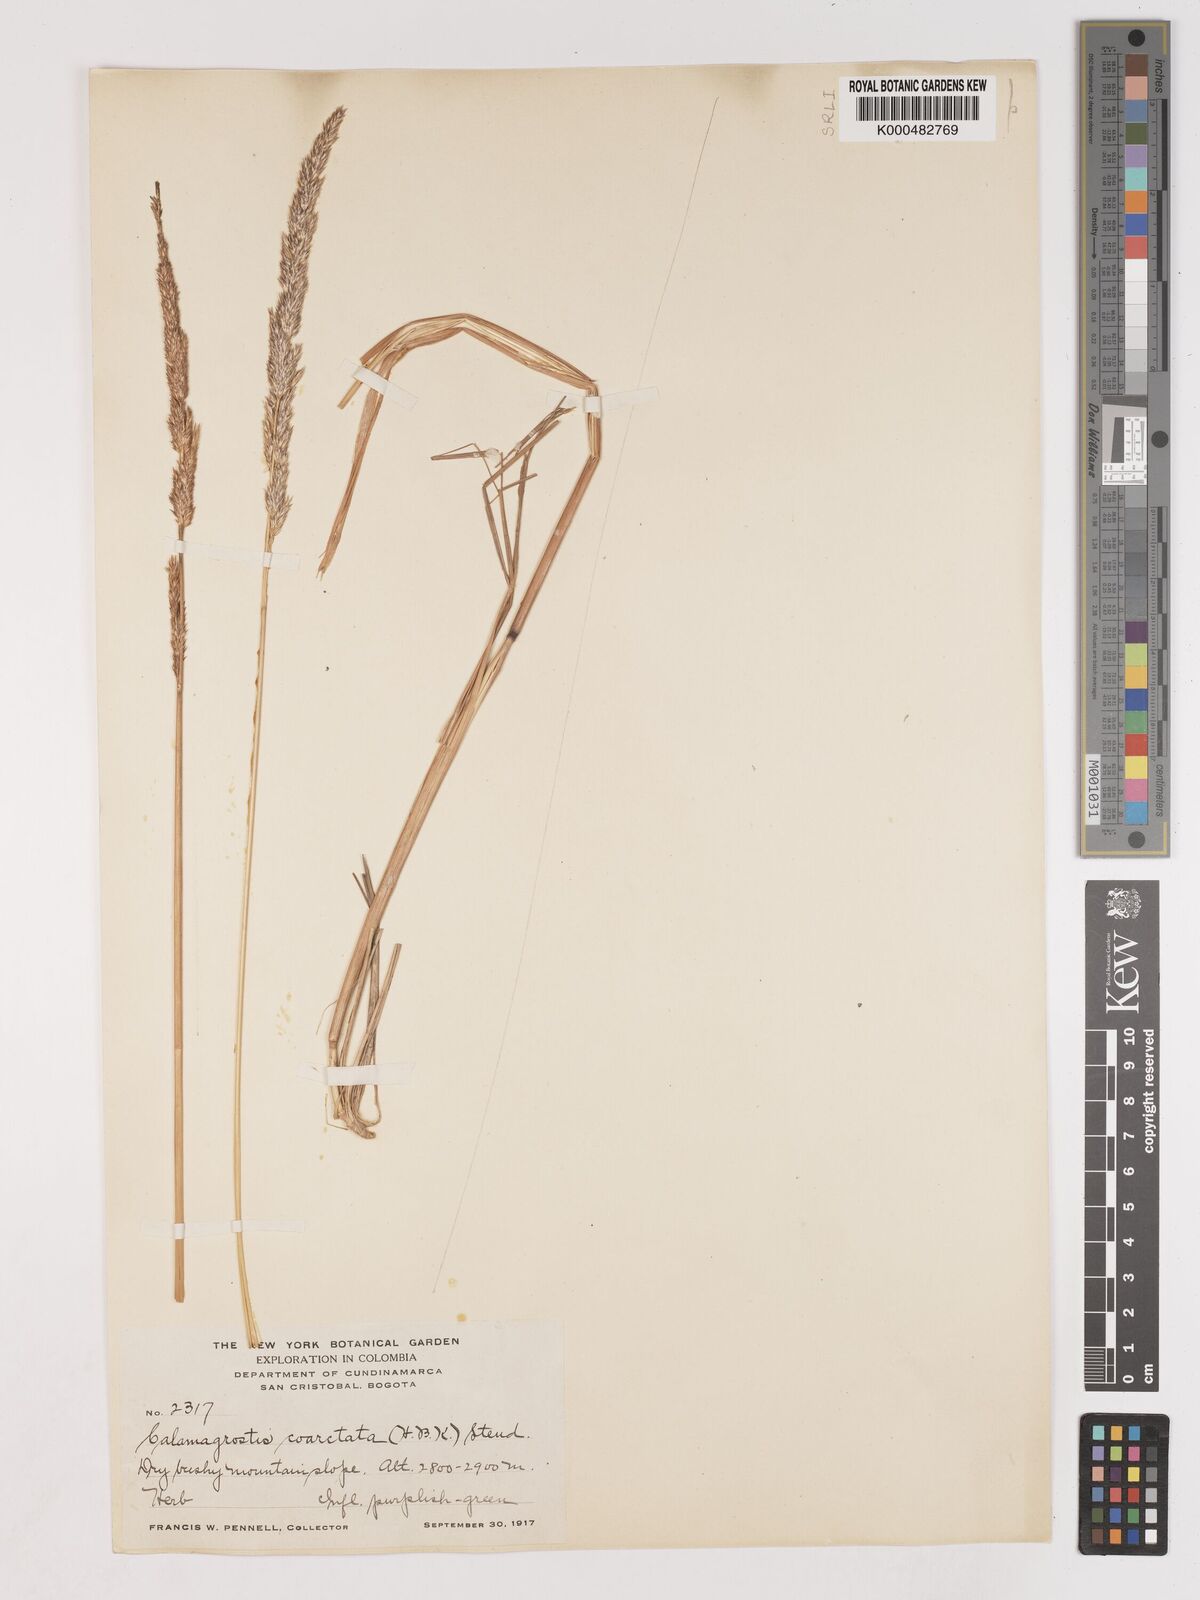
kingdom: Plantae
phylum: Tracheophyta
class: Liliopsida
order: Poales
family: Poaceae
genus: Cinnagrostis
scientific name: Cinnagrostis coarctata
